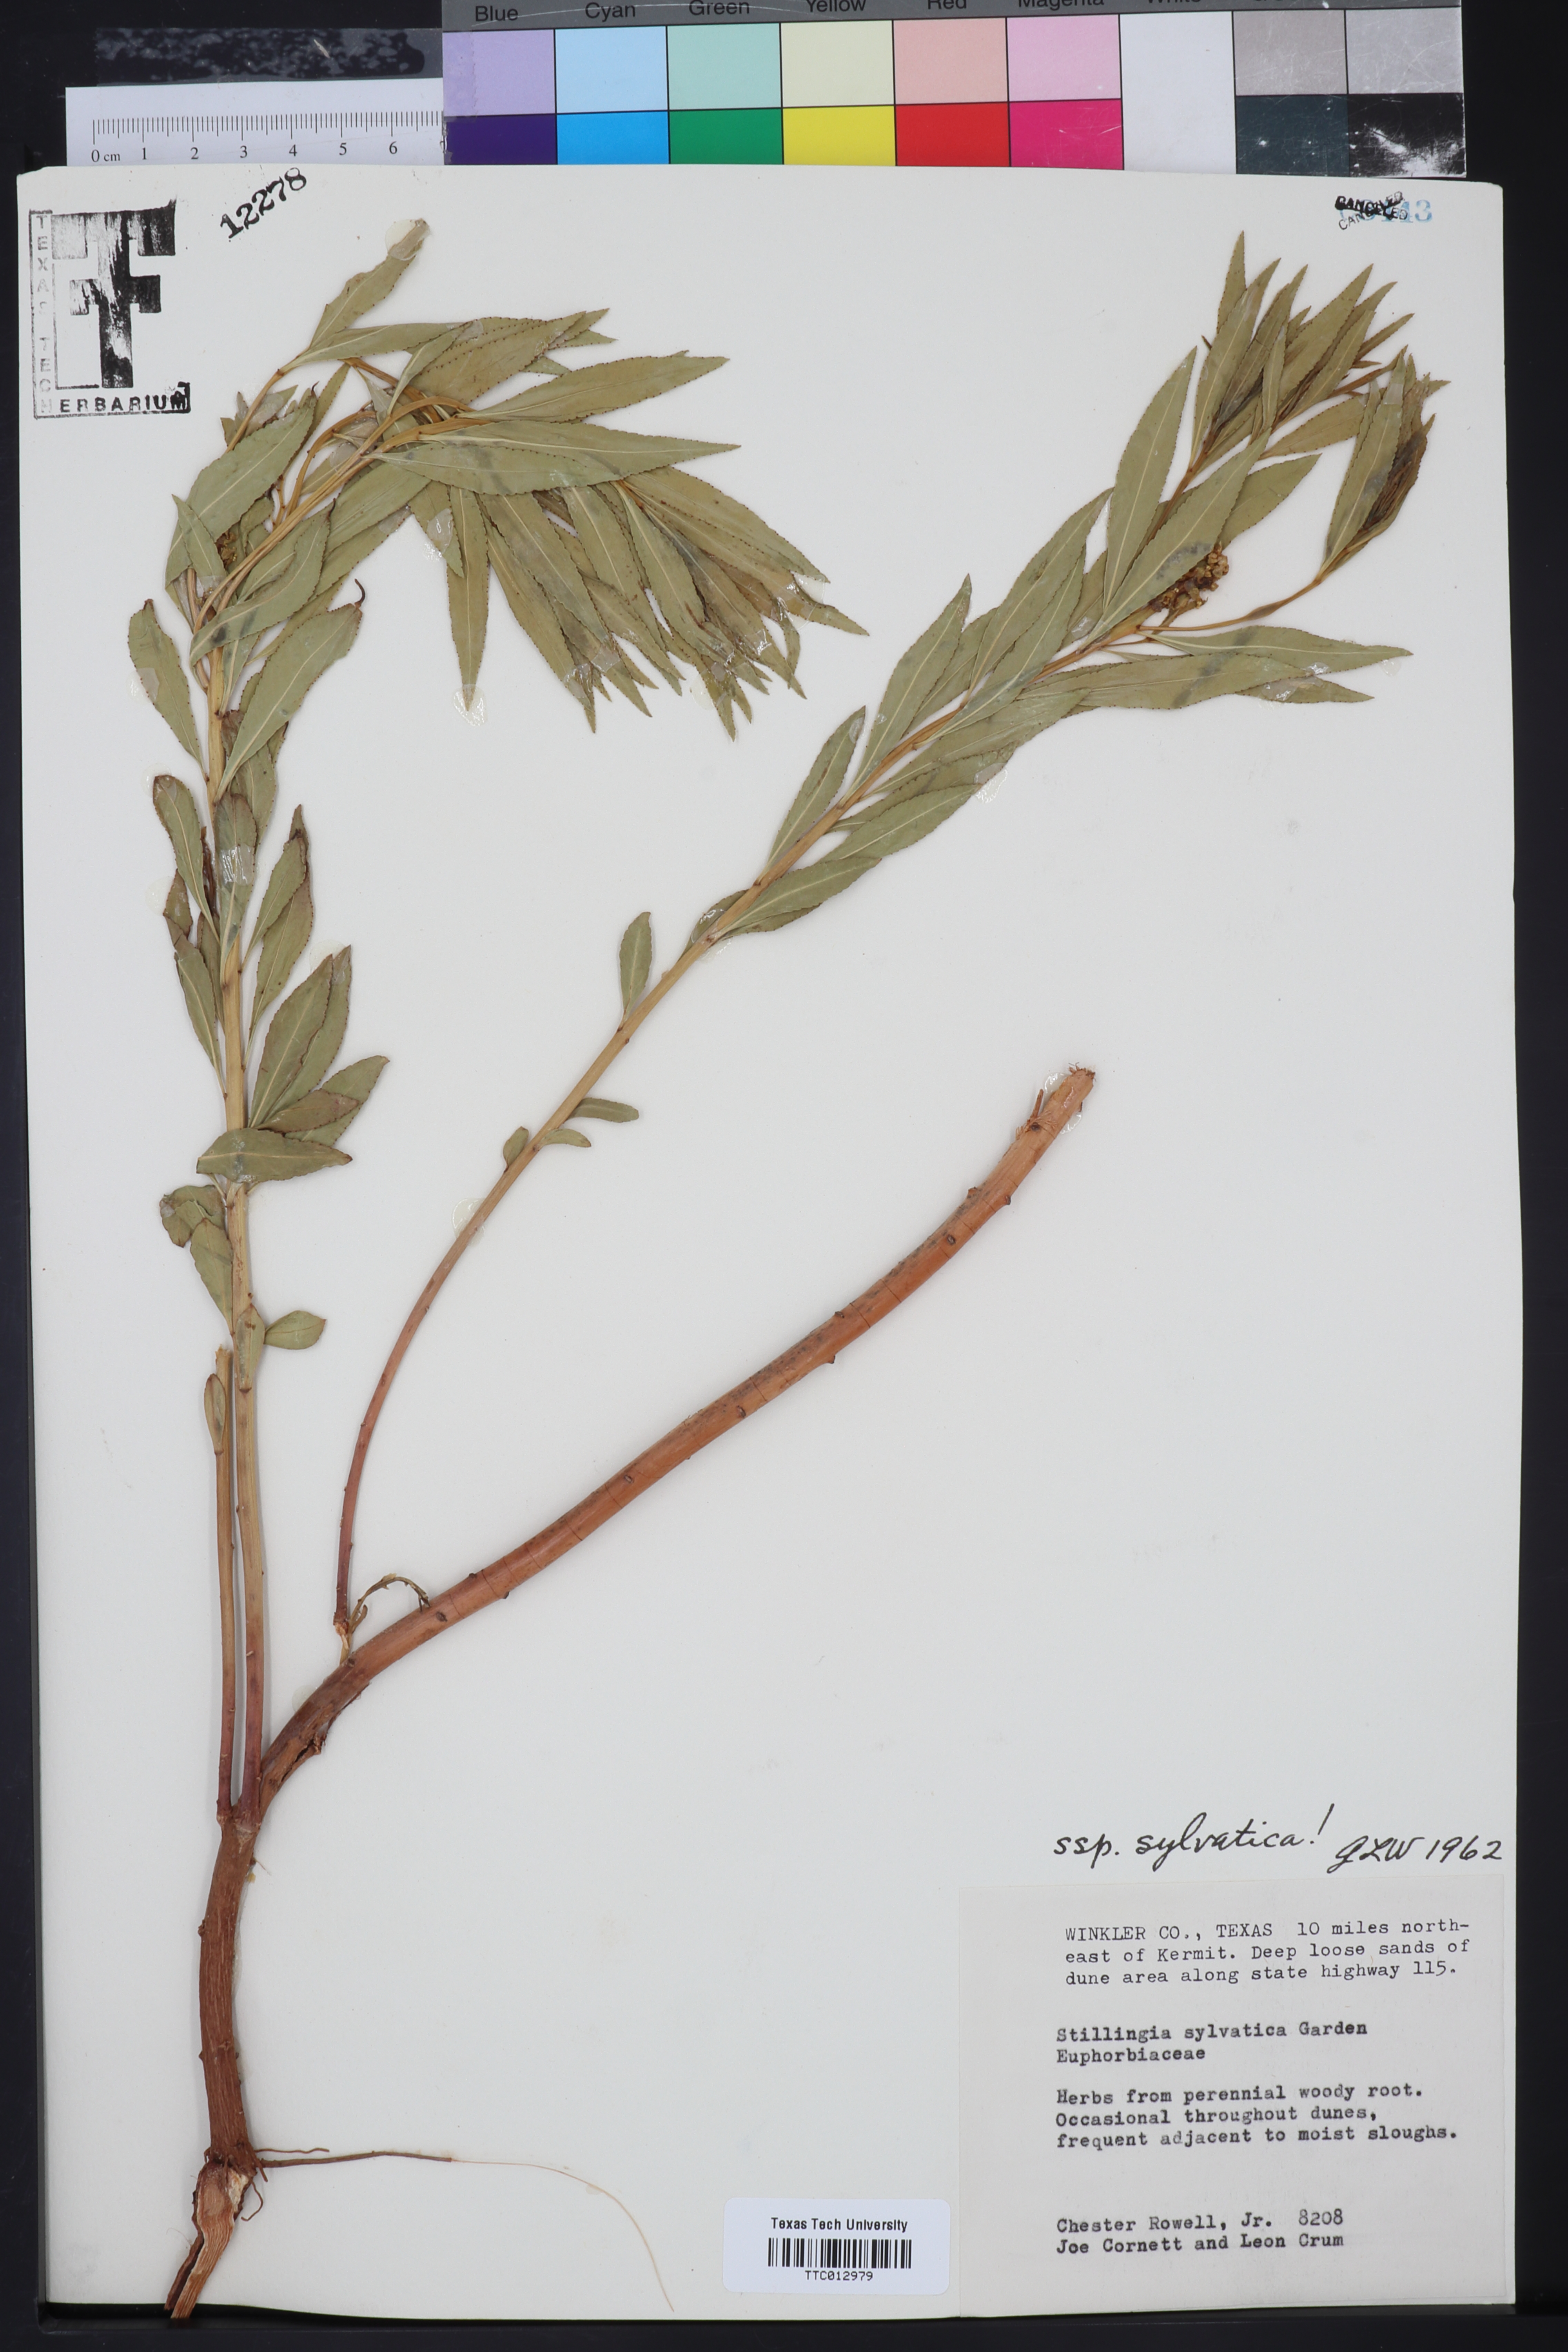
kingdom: Plantae
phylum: Tracheophyta
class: Magnoliopsida
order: Malpighiales
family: Euphorbiaceae
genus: Stillingia
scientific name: Stillingia sylvatica
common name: Queen's-delight
